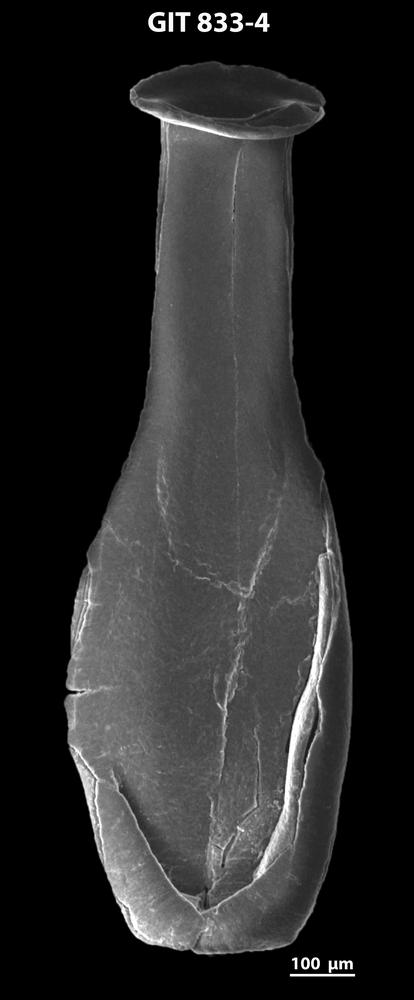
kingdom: Animalia
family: Lagenochitinidae
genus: Lagenochitina
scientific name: Lagenochitina megaesthonica
